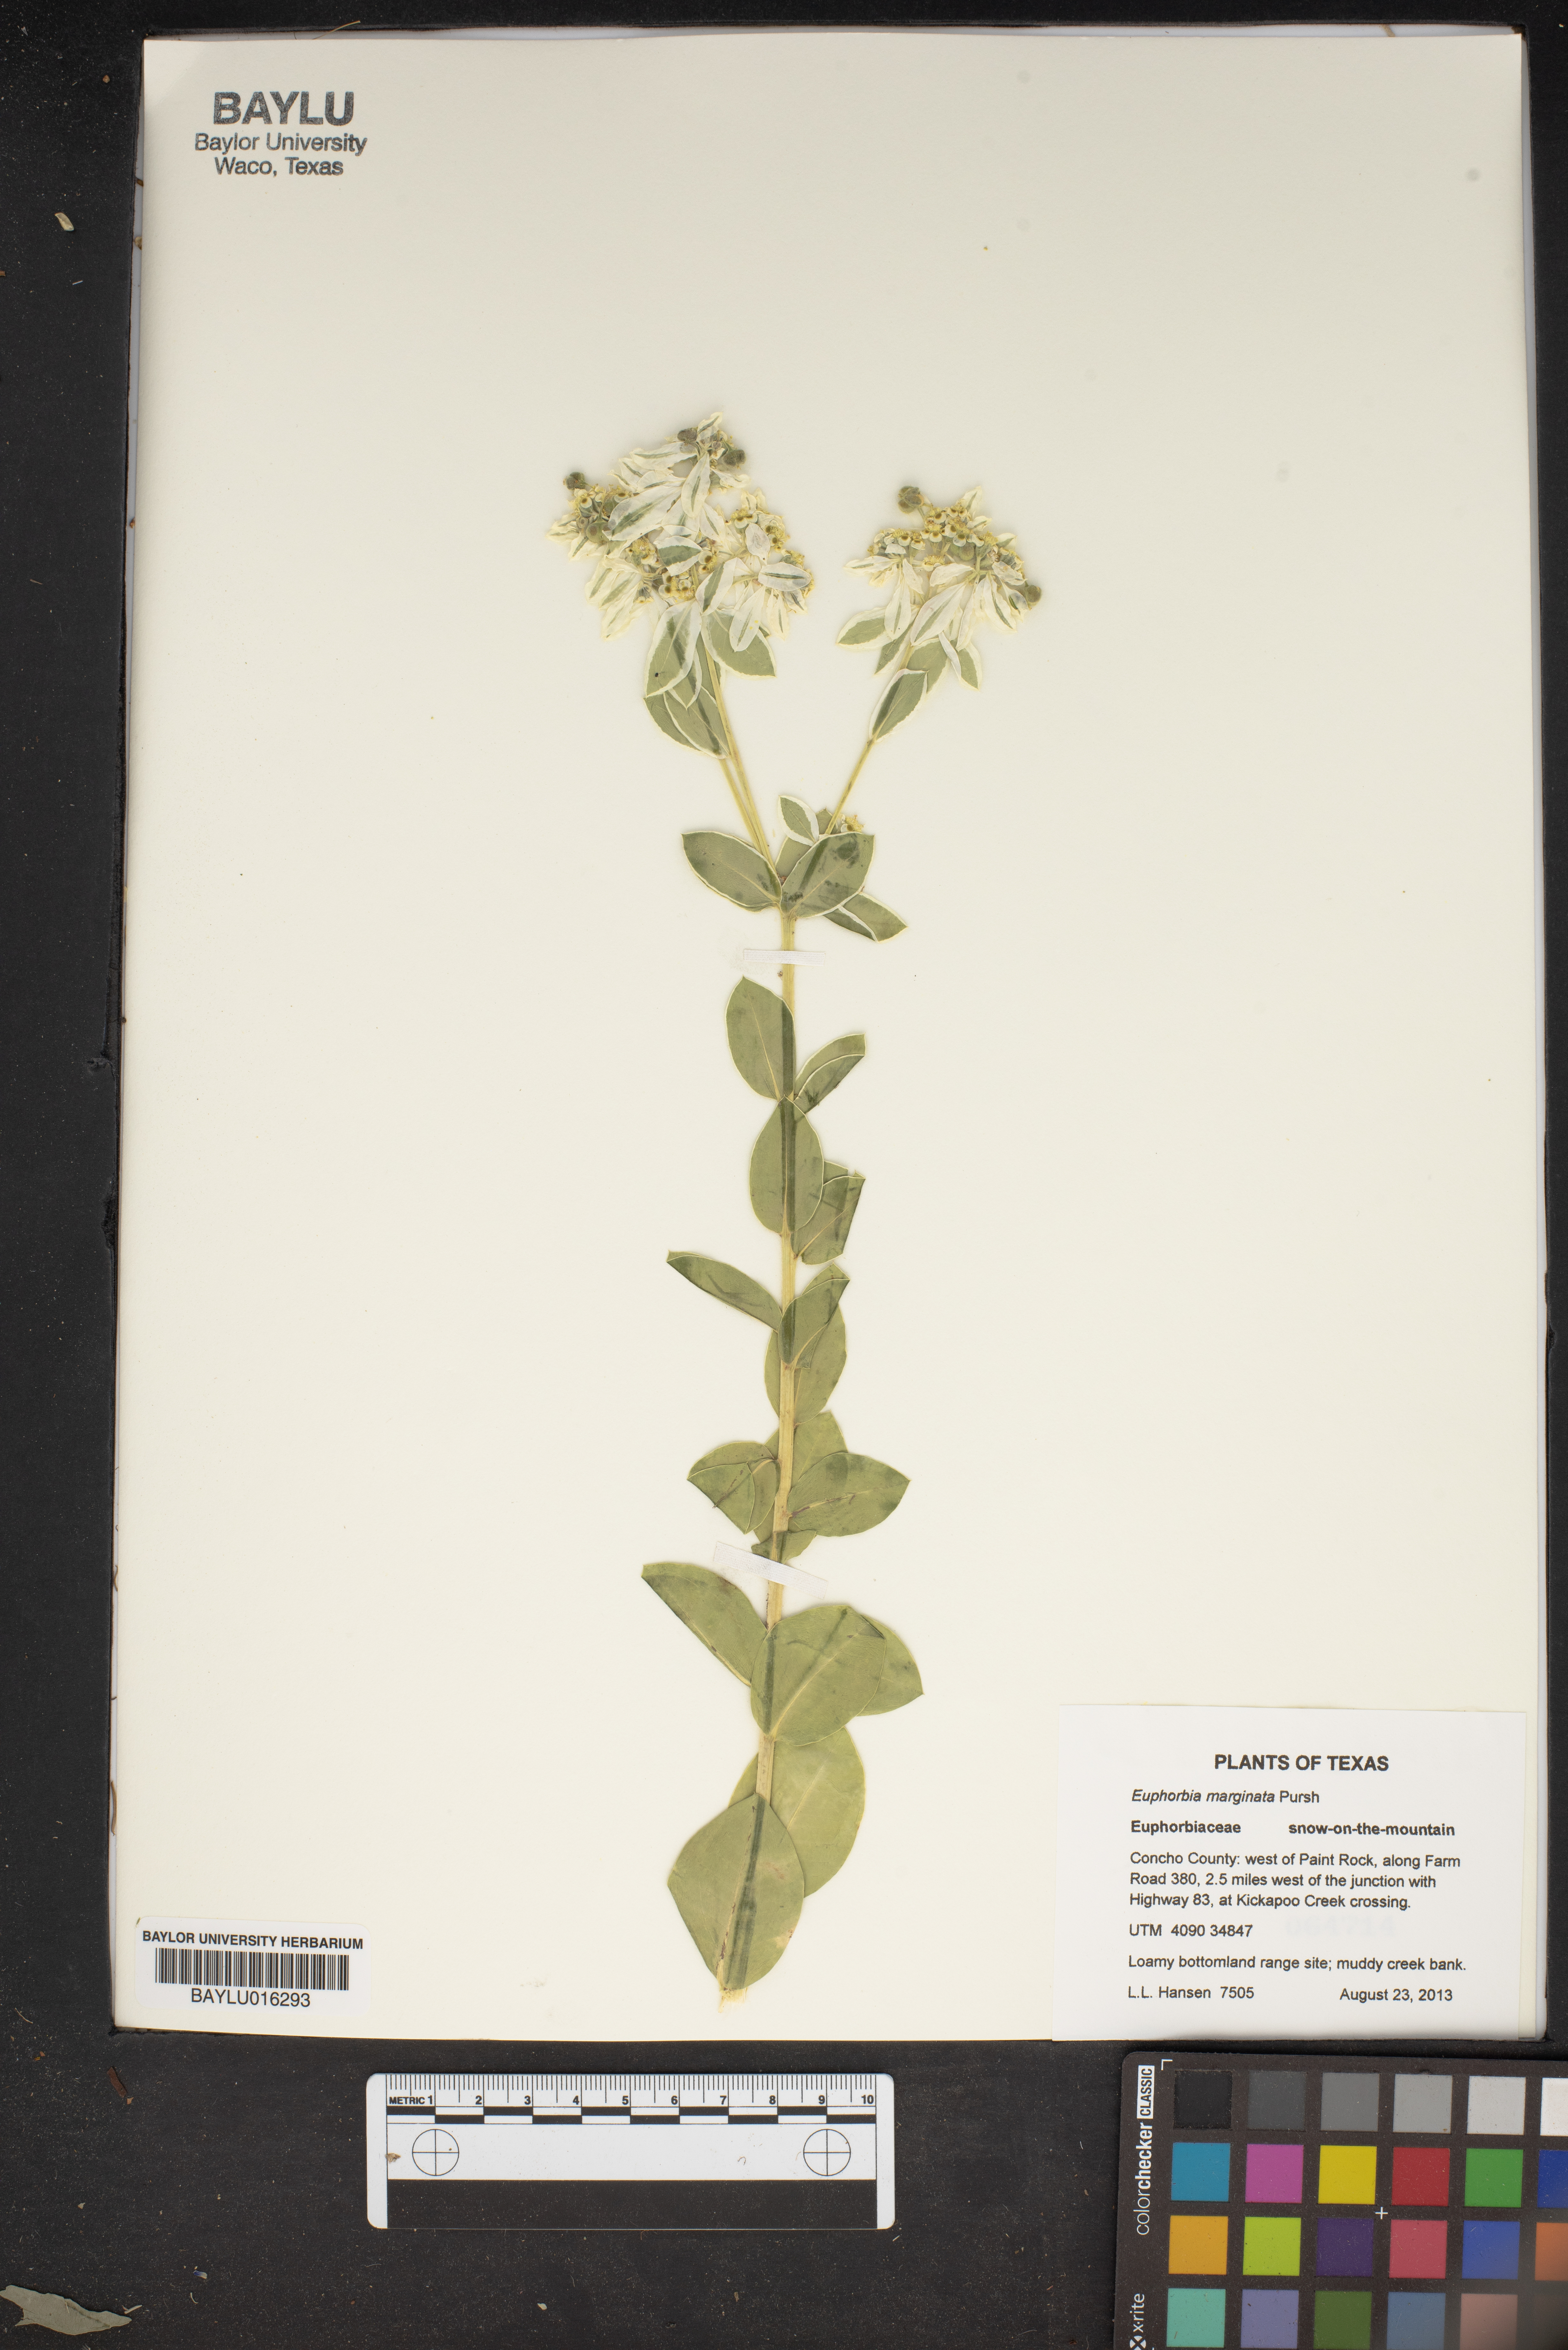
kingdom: Plantae
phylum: Tracheophyta
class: Magnoliopsida
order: Malpighiales
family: Euphorbiaceae
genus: Euphorbia
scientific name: Euphorbia marginata
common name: Ghostweed
